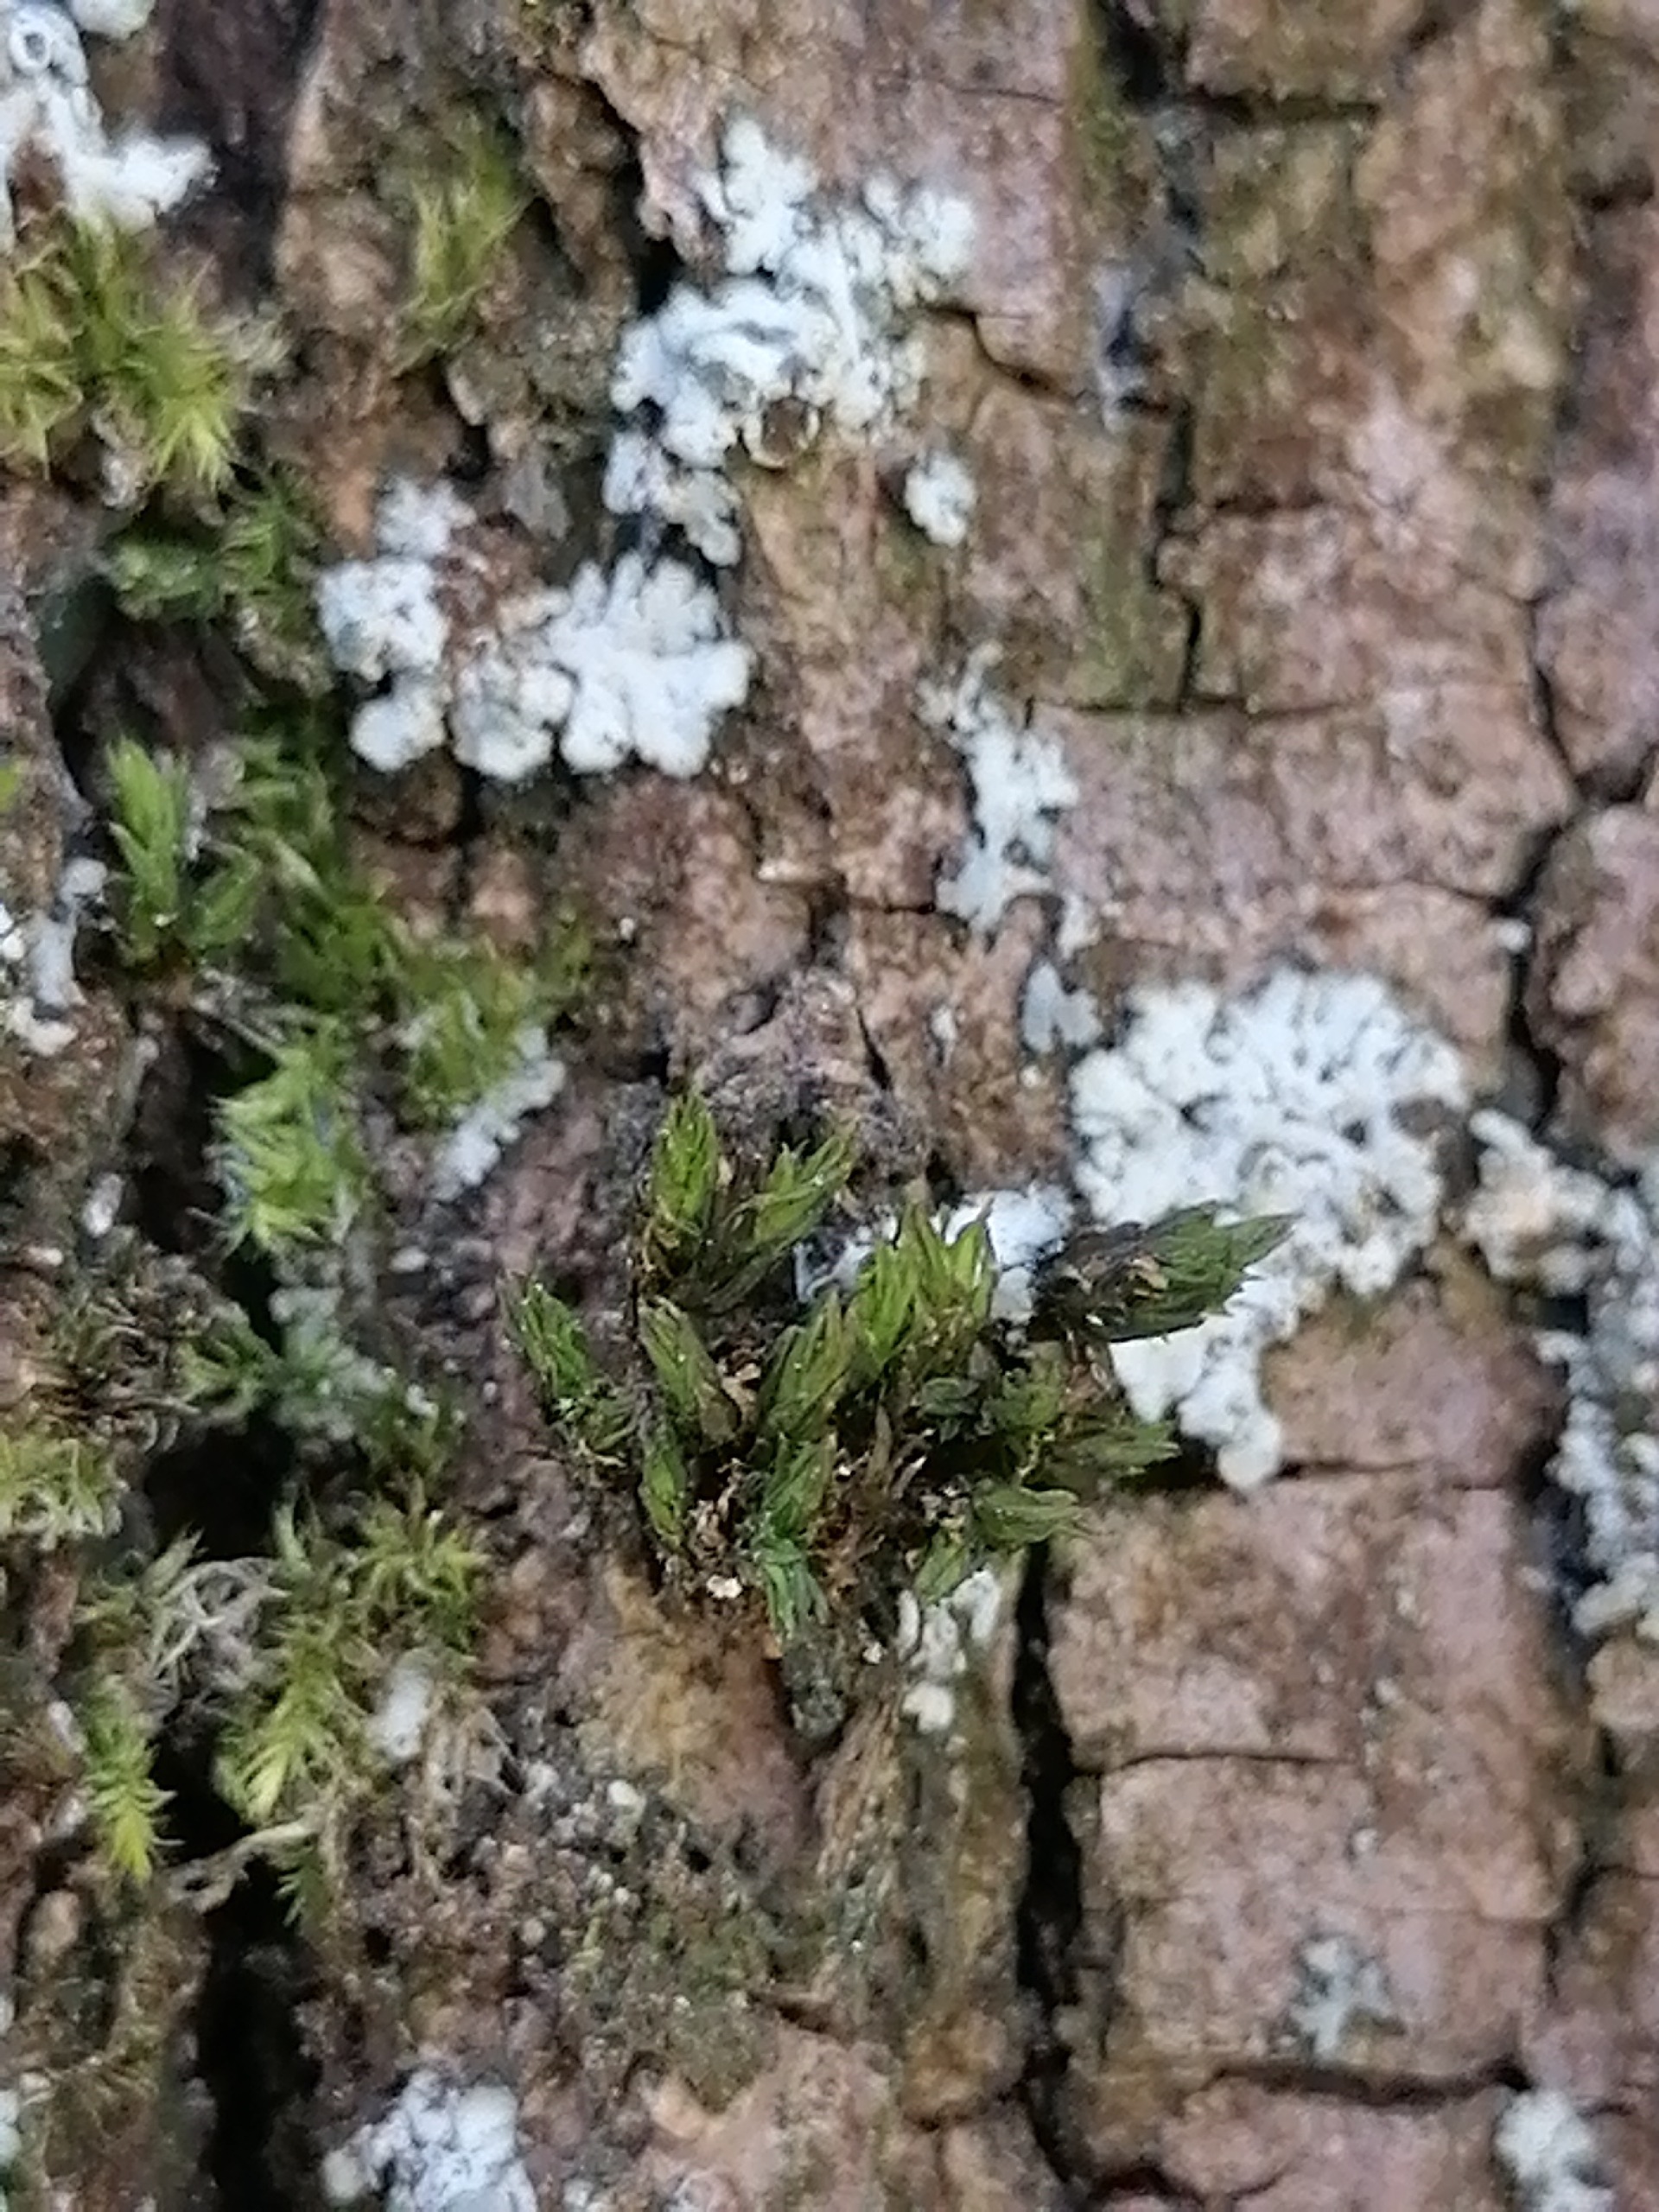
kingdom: Plantae
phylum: Bryophyta
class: Bryopsida
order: Orthotrichales
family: Orthotrichaceae
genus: Orthotrichum
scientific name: Orthotrichum
